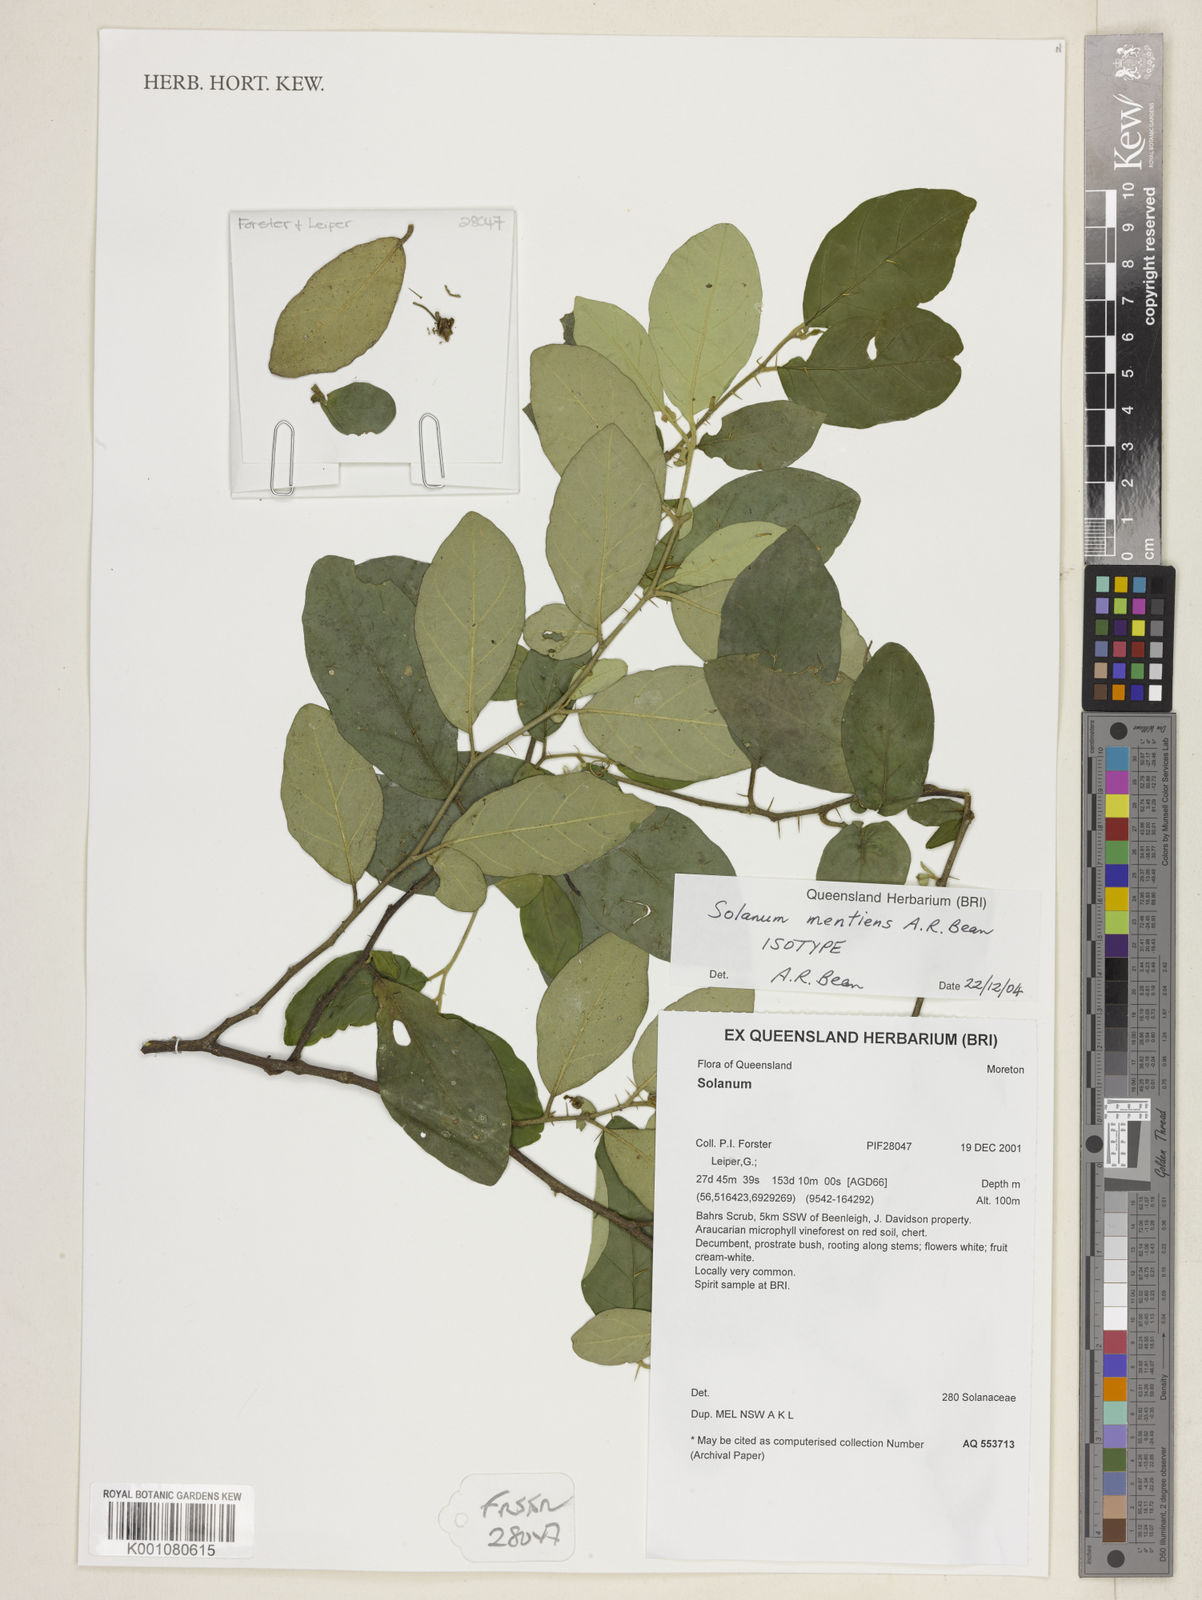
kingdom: Plantae
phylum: Tracheophyta
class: Magnoliopsida
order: Solanales
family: Solanaceae
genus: Solanum
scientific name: Solanum mentiens
